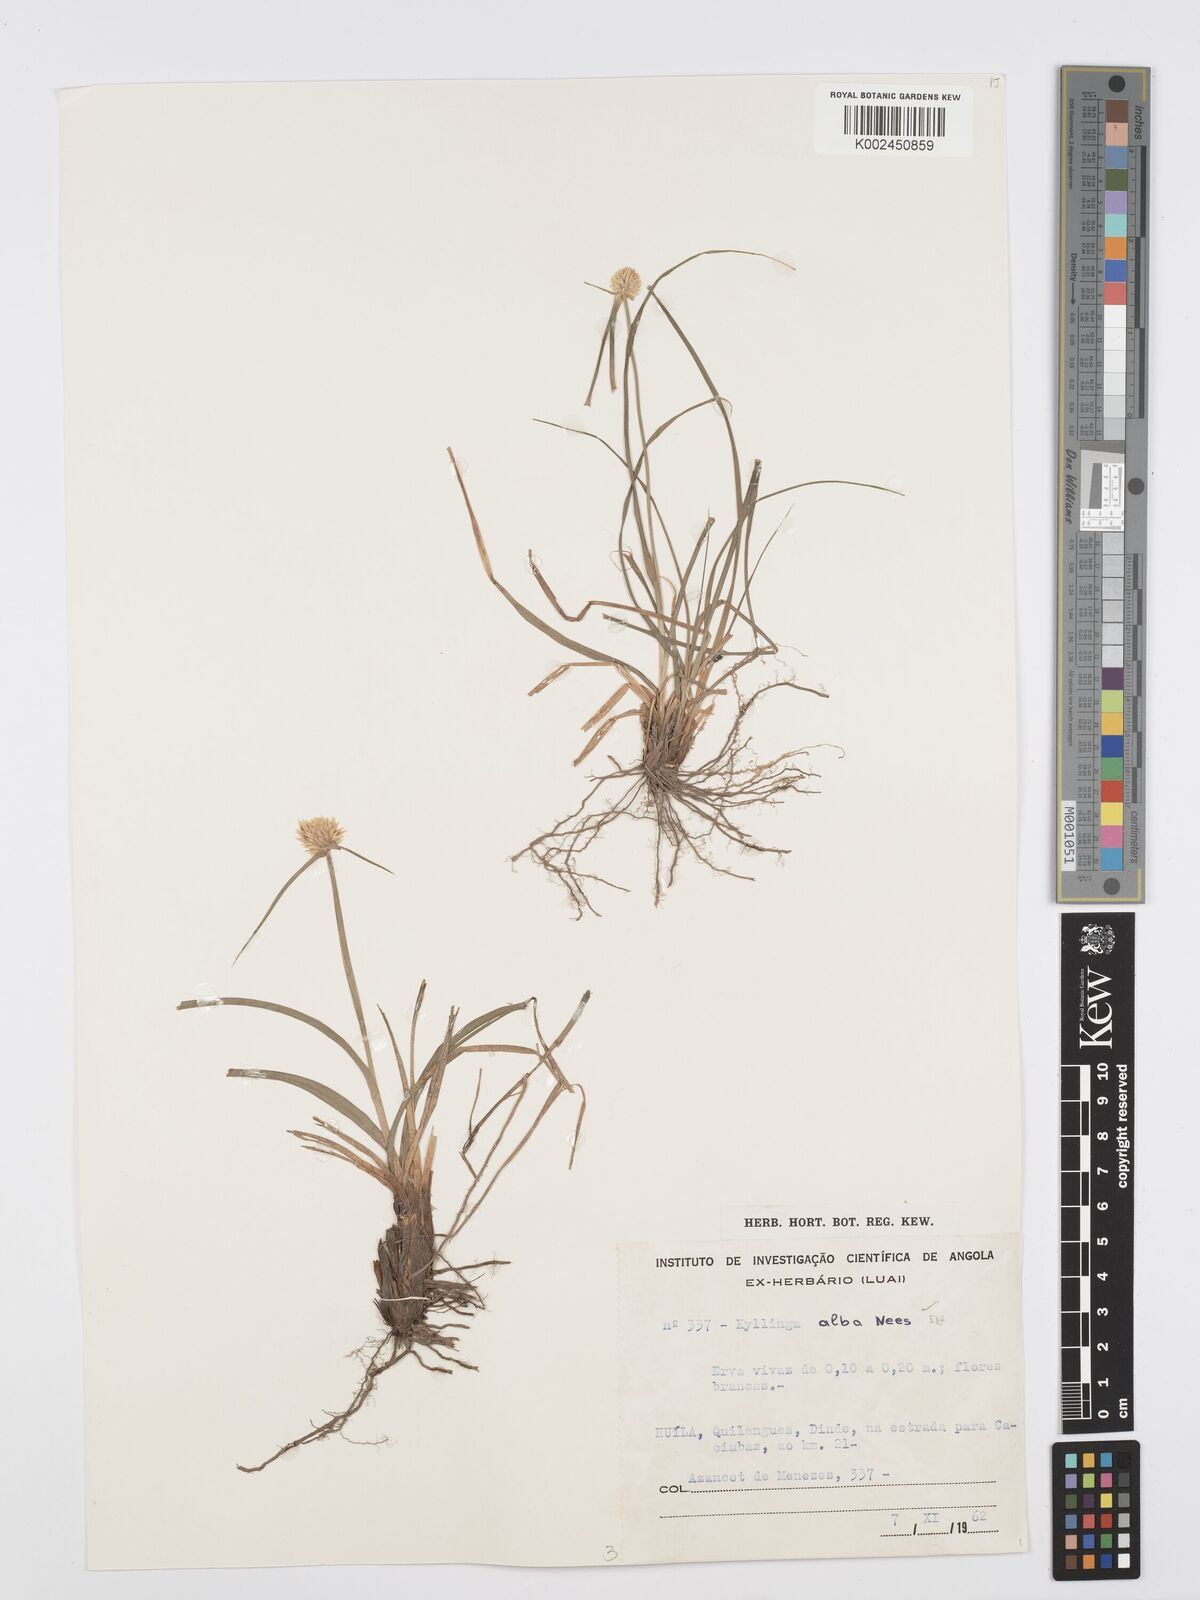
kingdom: Plantae
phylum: Tracheophyta
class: Liliopsida
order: Poales
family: Cyperaceae
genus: Cyperus
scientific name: Cyperus
